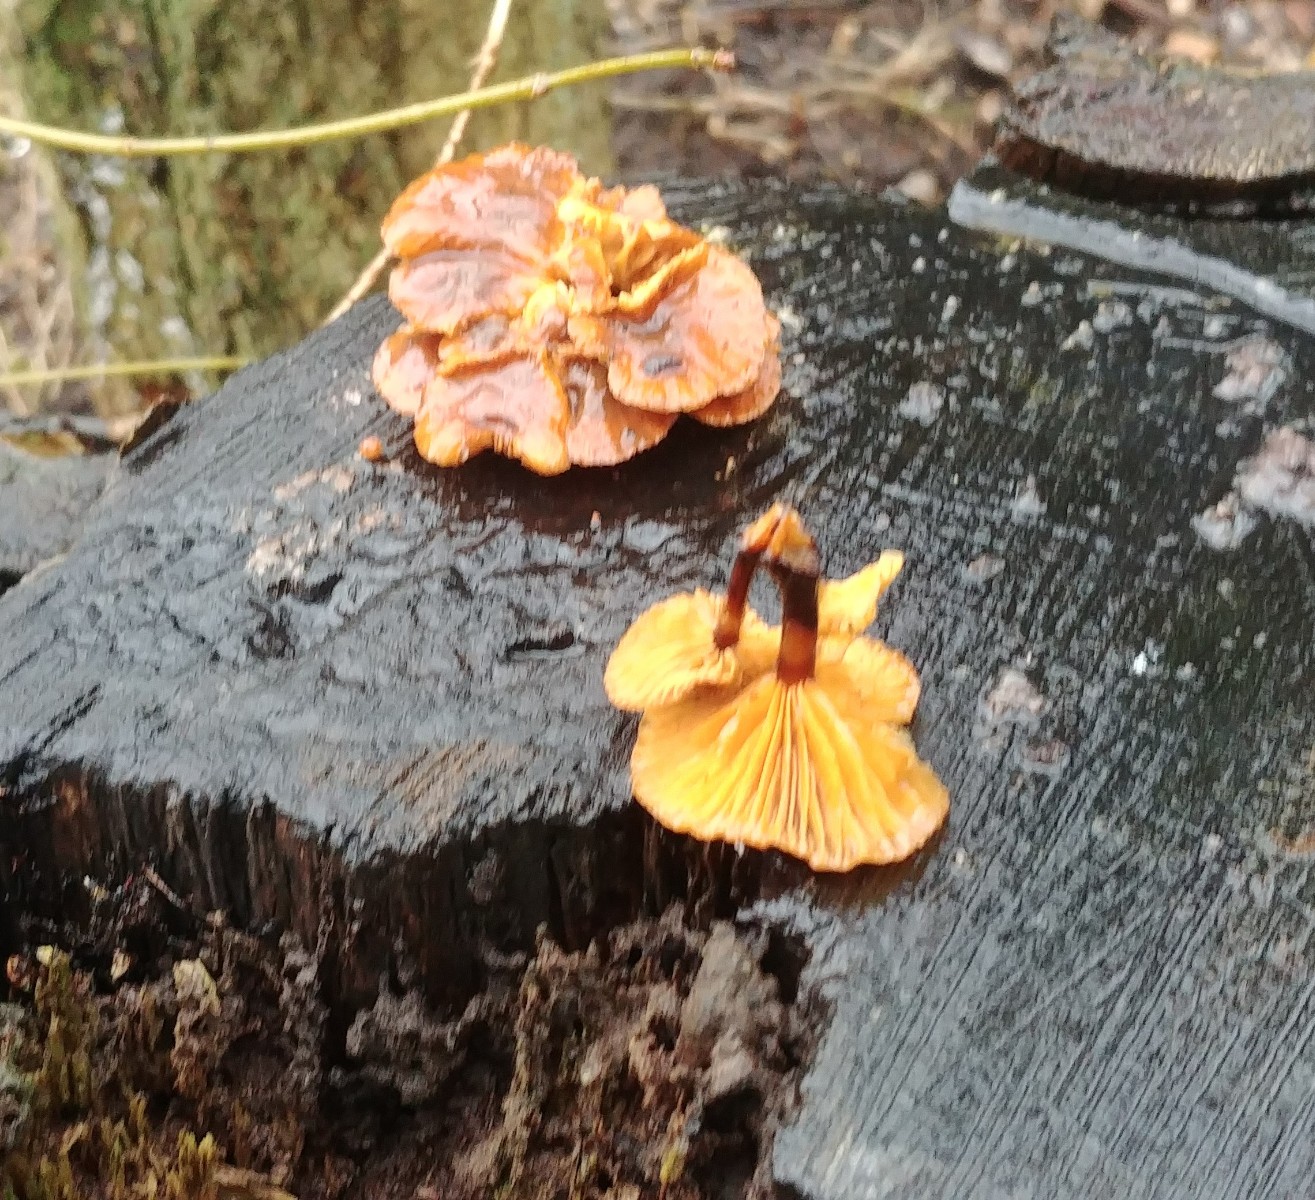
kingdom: Fungi
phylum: Basidiomycota
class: Agaricomycetes
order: Agaricales
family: Physalacriaceae
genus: Flammulina
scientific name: Flammulina
